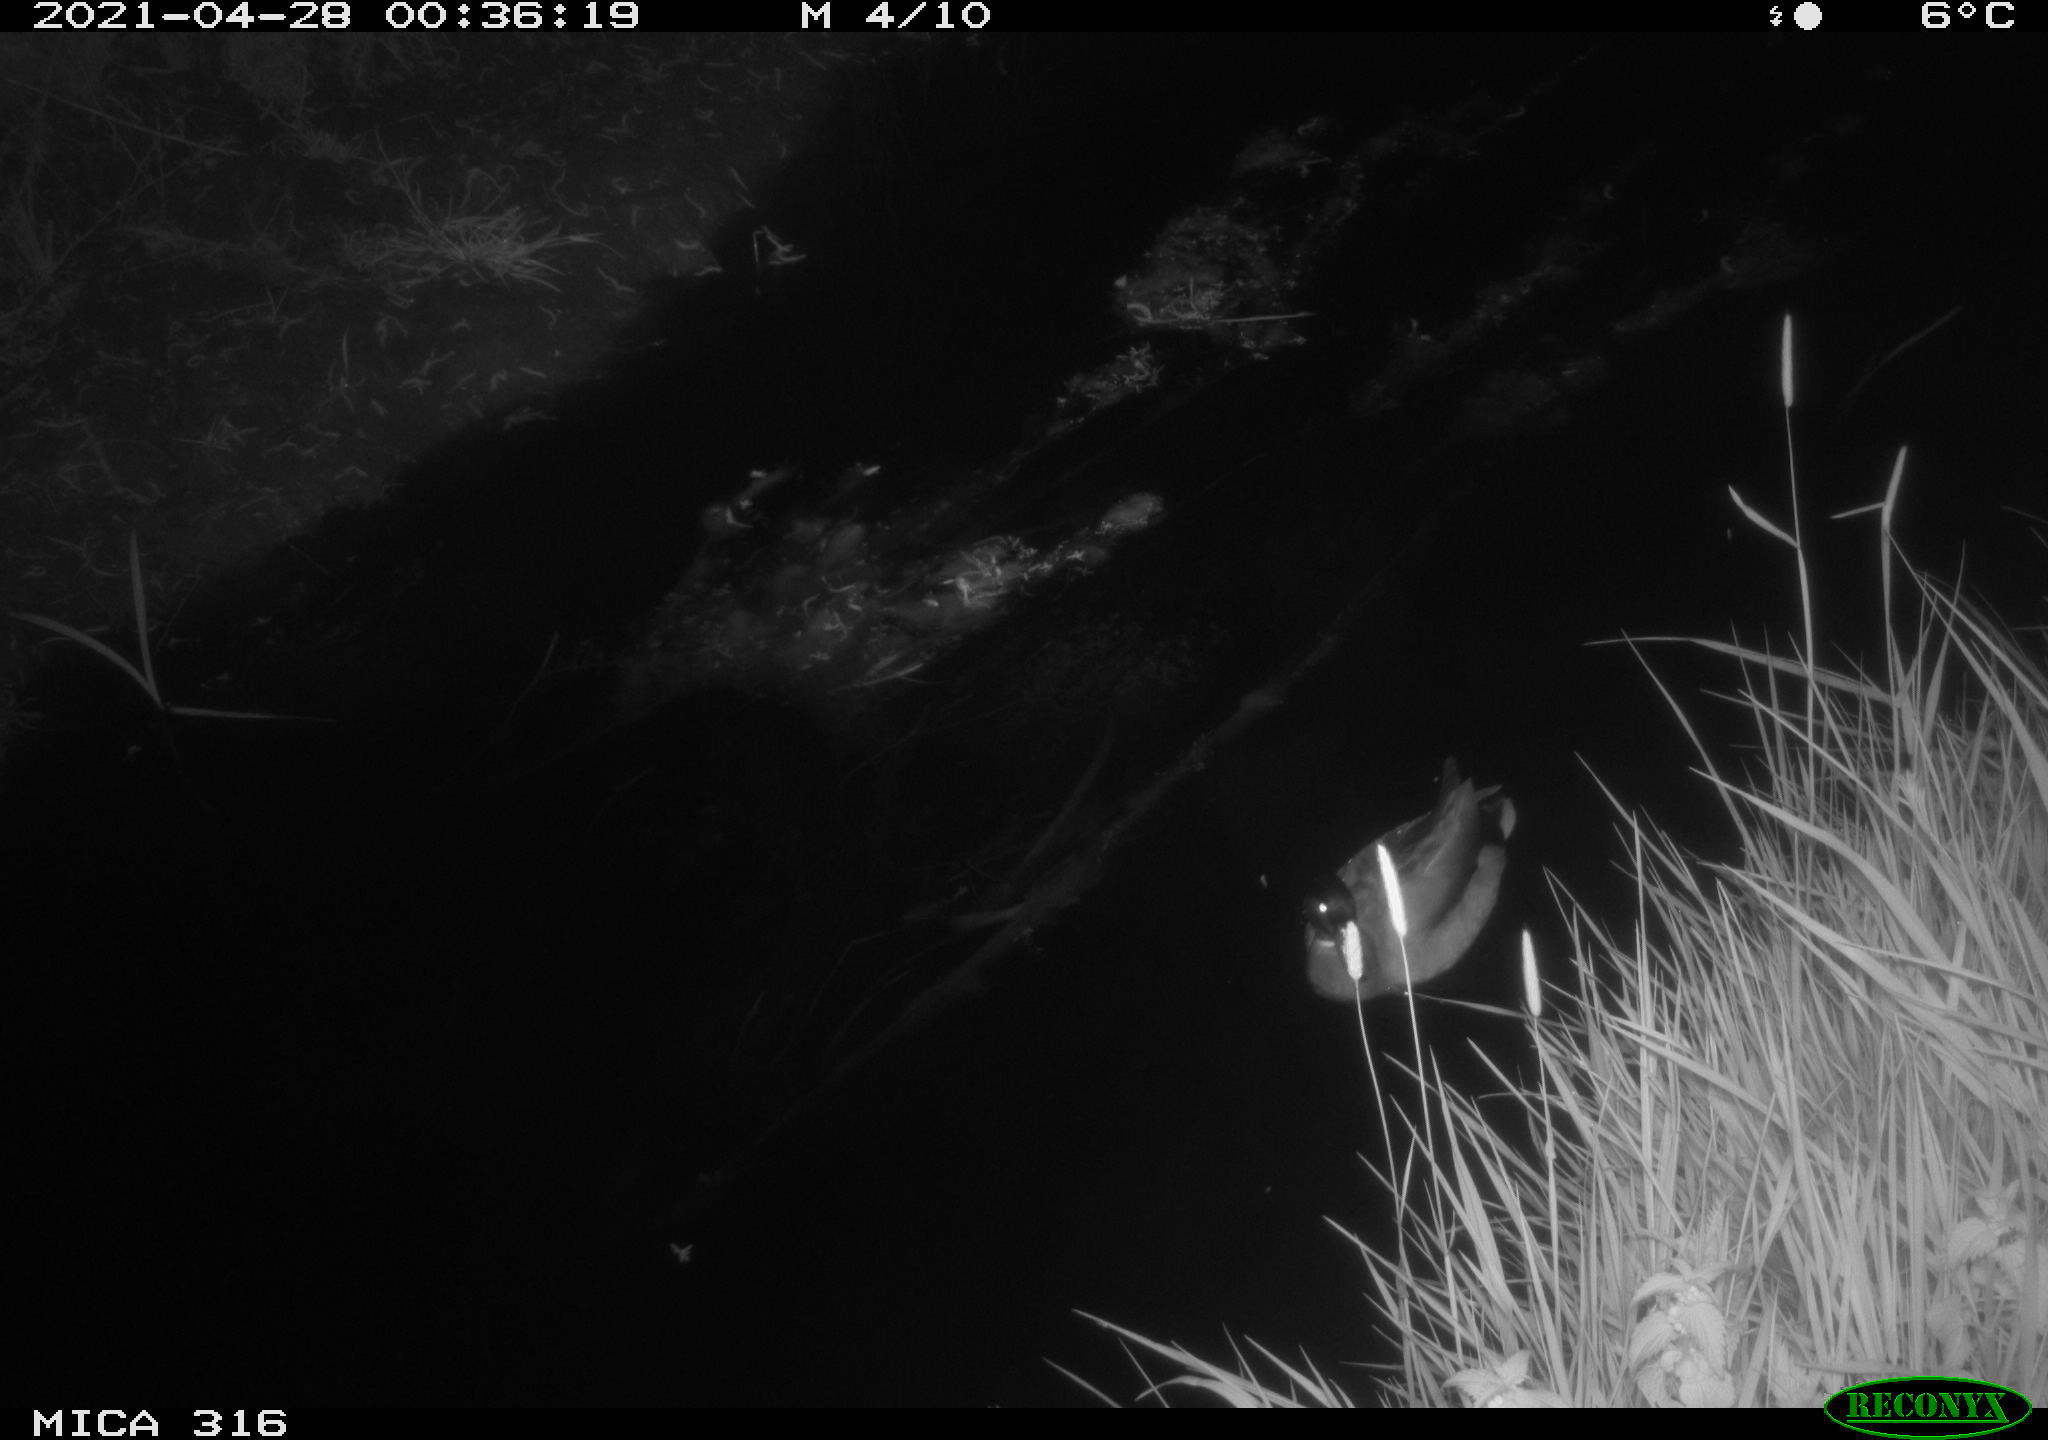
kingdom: Animalia
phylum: Chordata
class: Aves
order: Anseriformes
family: Anatidae
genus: Anas
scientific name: Anas platyrhynchos
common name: Mallard
